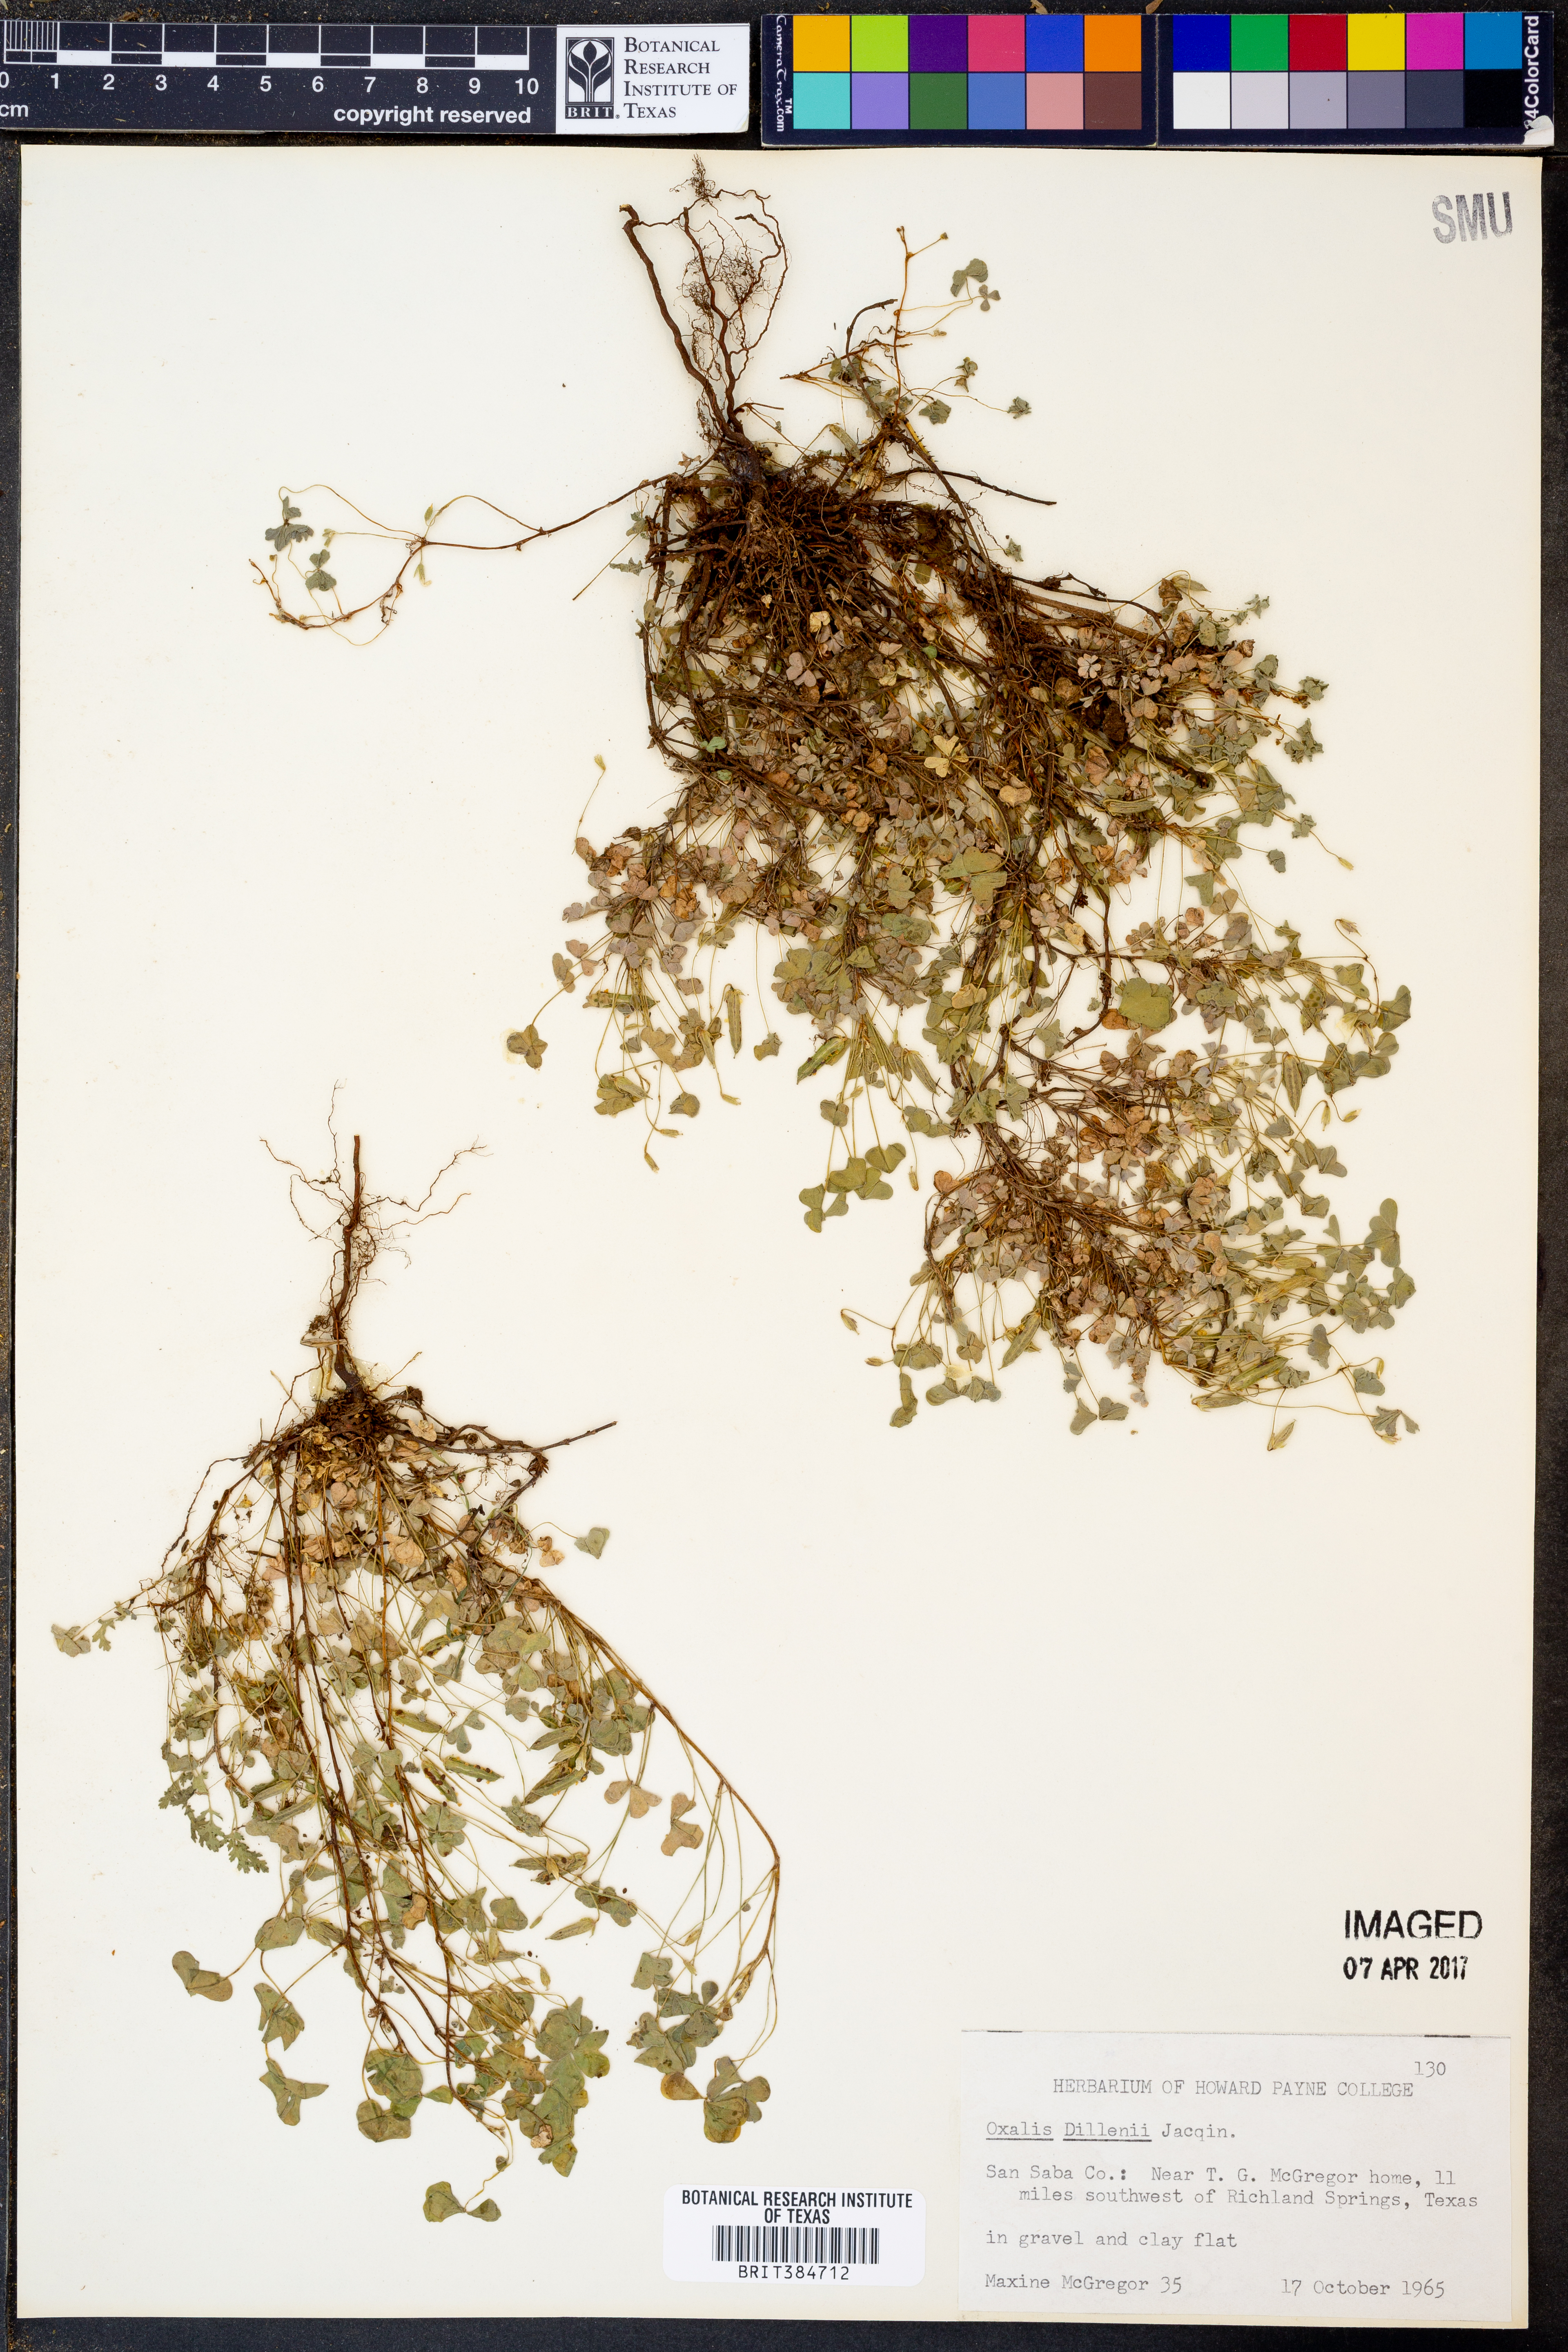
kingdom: Plantae
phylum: Tracheophyta
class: Magnoliopsida
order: Oxalidales
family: Oxalidaceae
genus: Oxalis
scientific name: Oxalis dillenii
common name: Sussex yellow-sorrel
